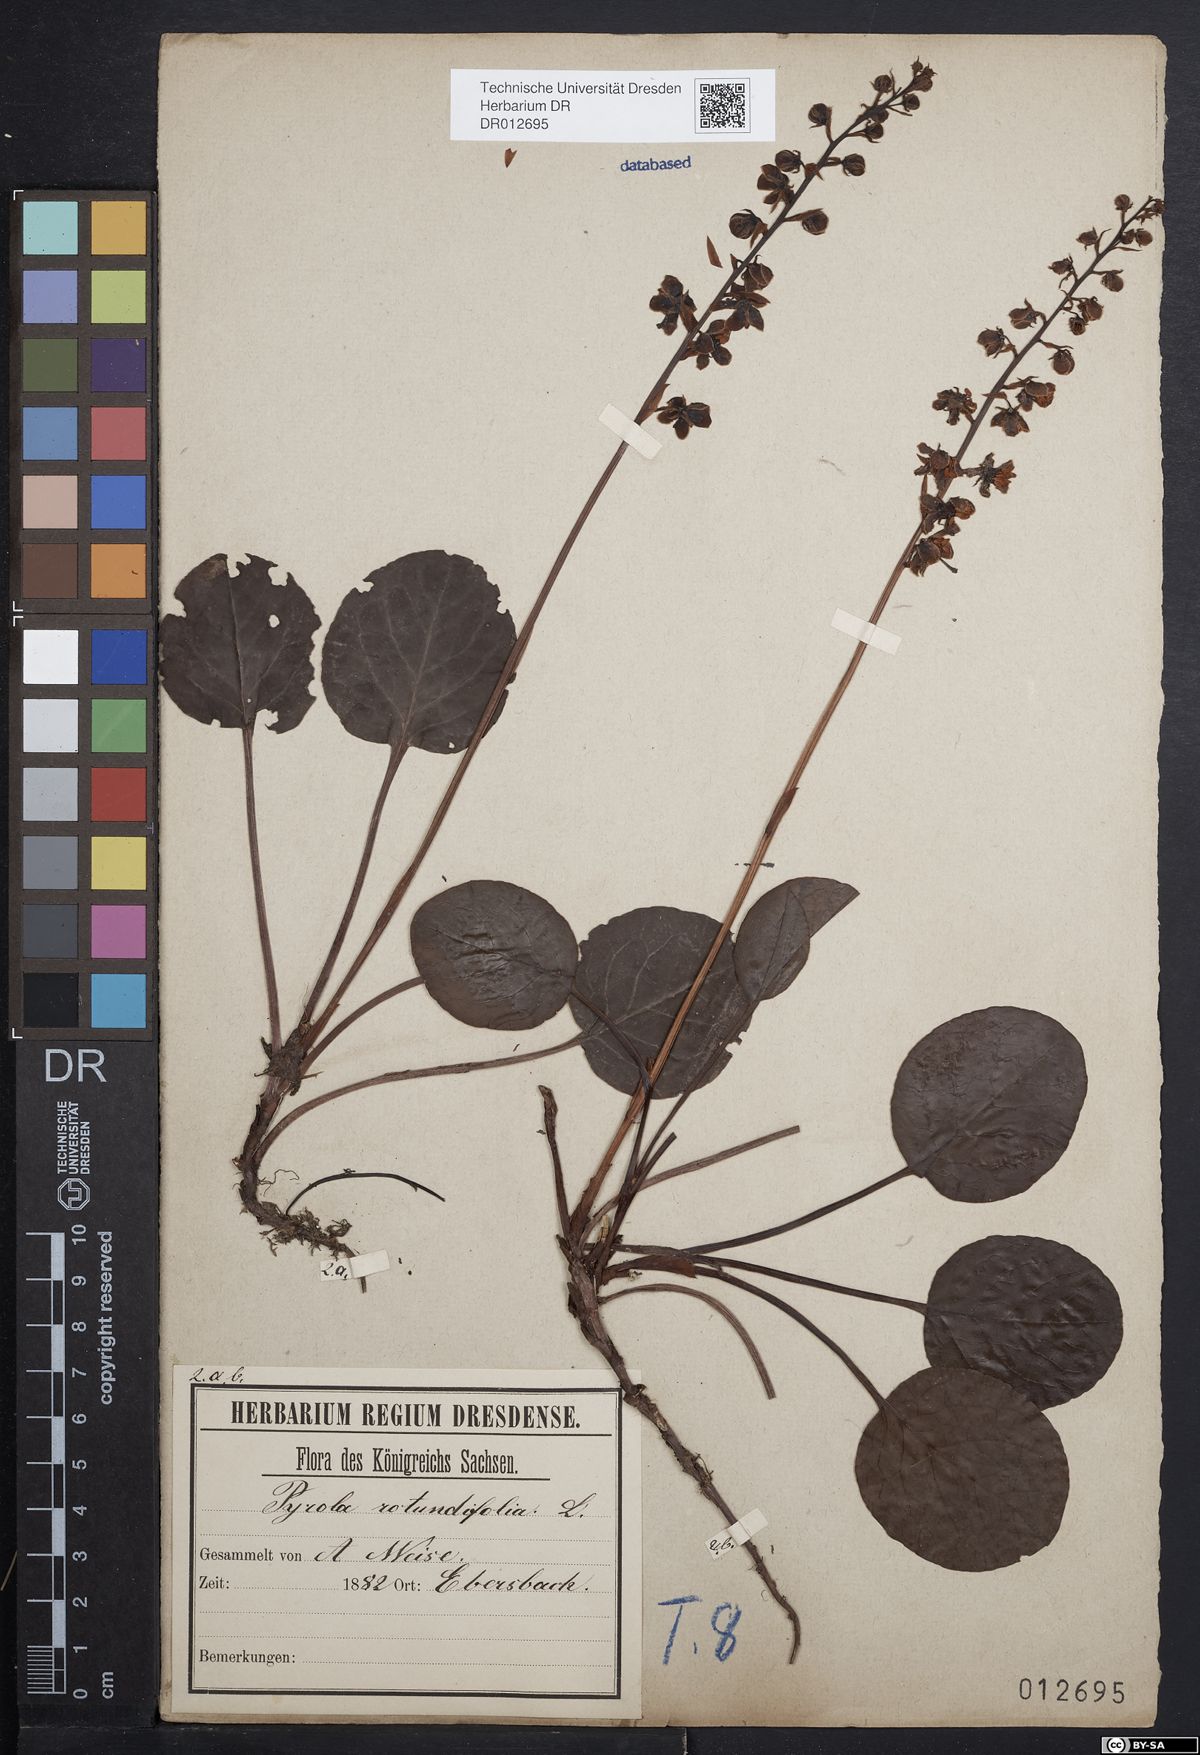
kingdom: Plantae
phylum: Tracheophyta
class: Magnoliopsida
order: Ericales
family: Ericaceae
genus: Pyrola
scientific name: Pyrola rotundifolia
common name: Round-leaved wintergreen
